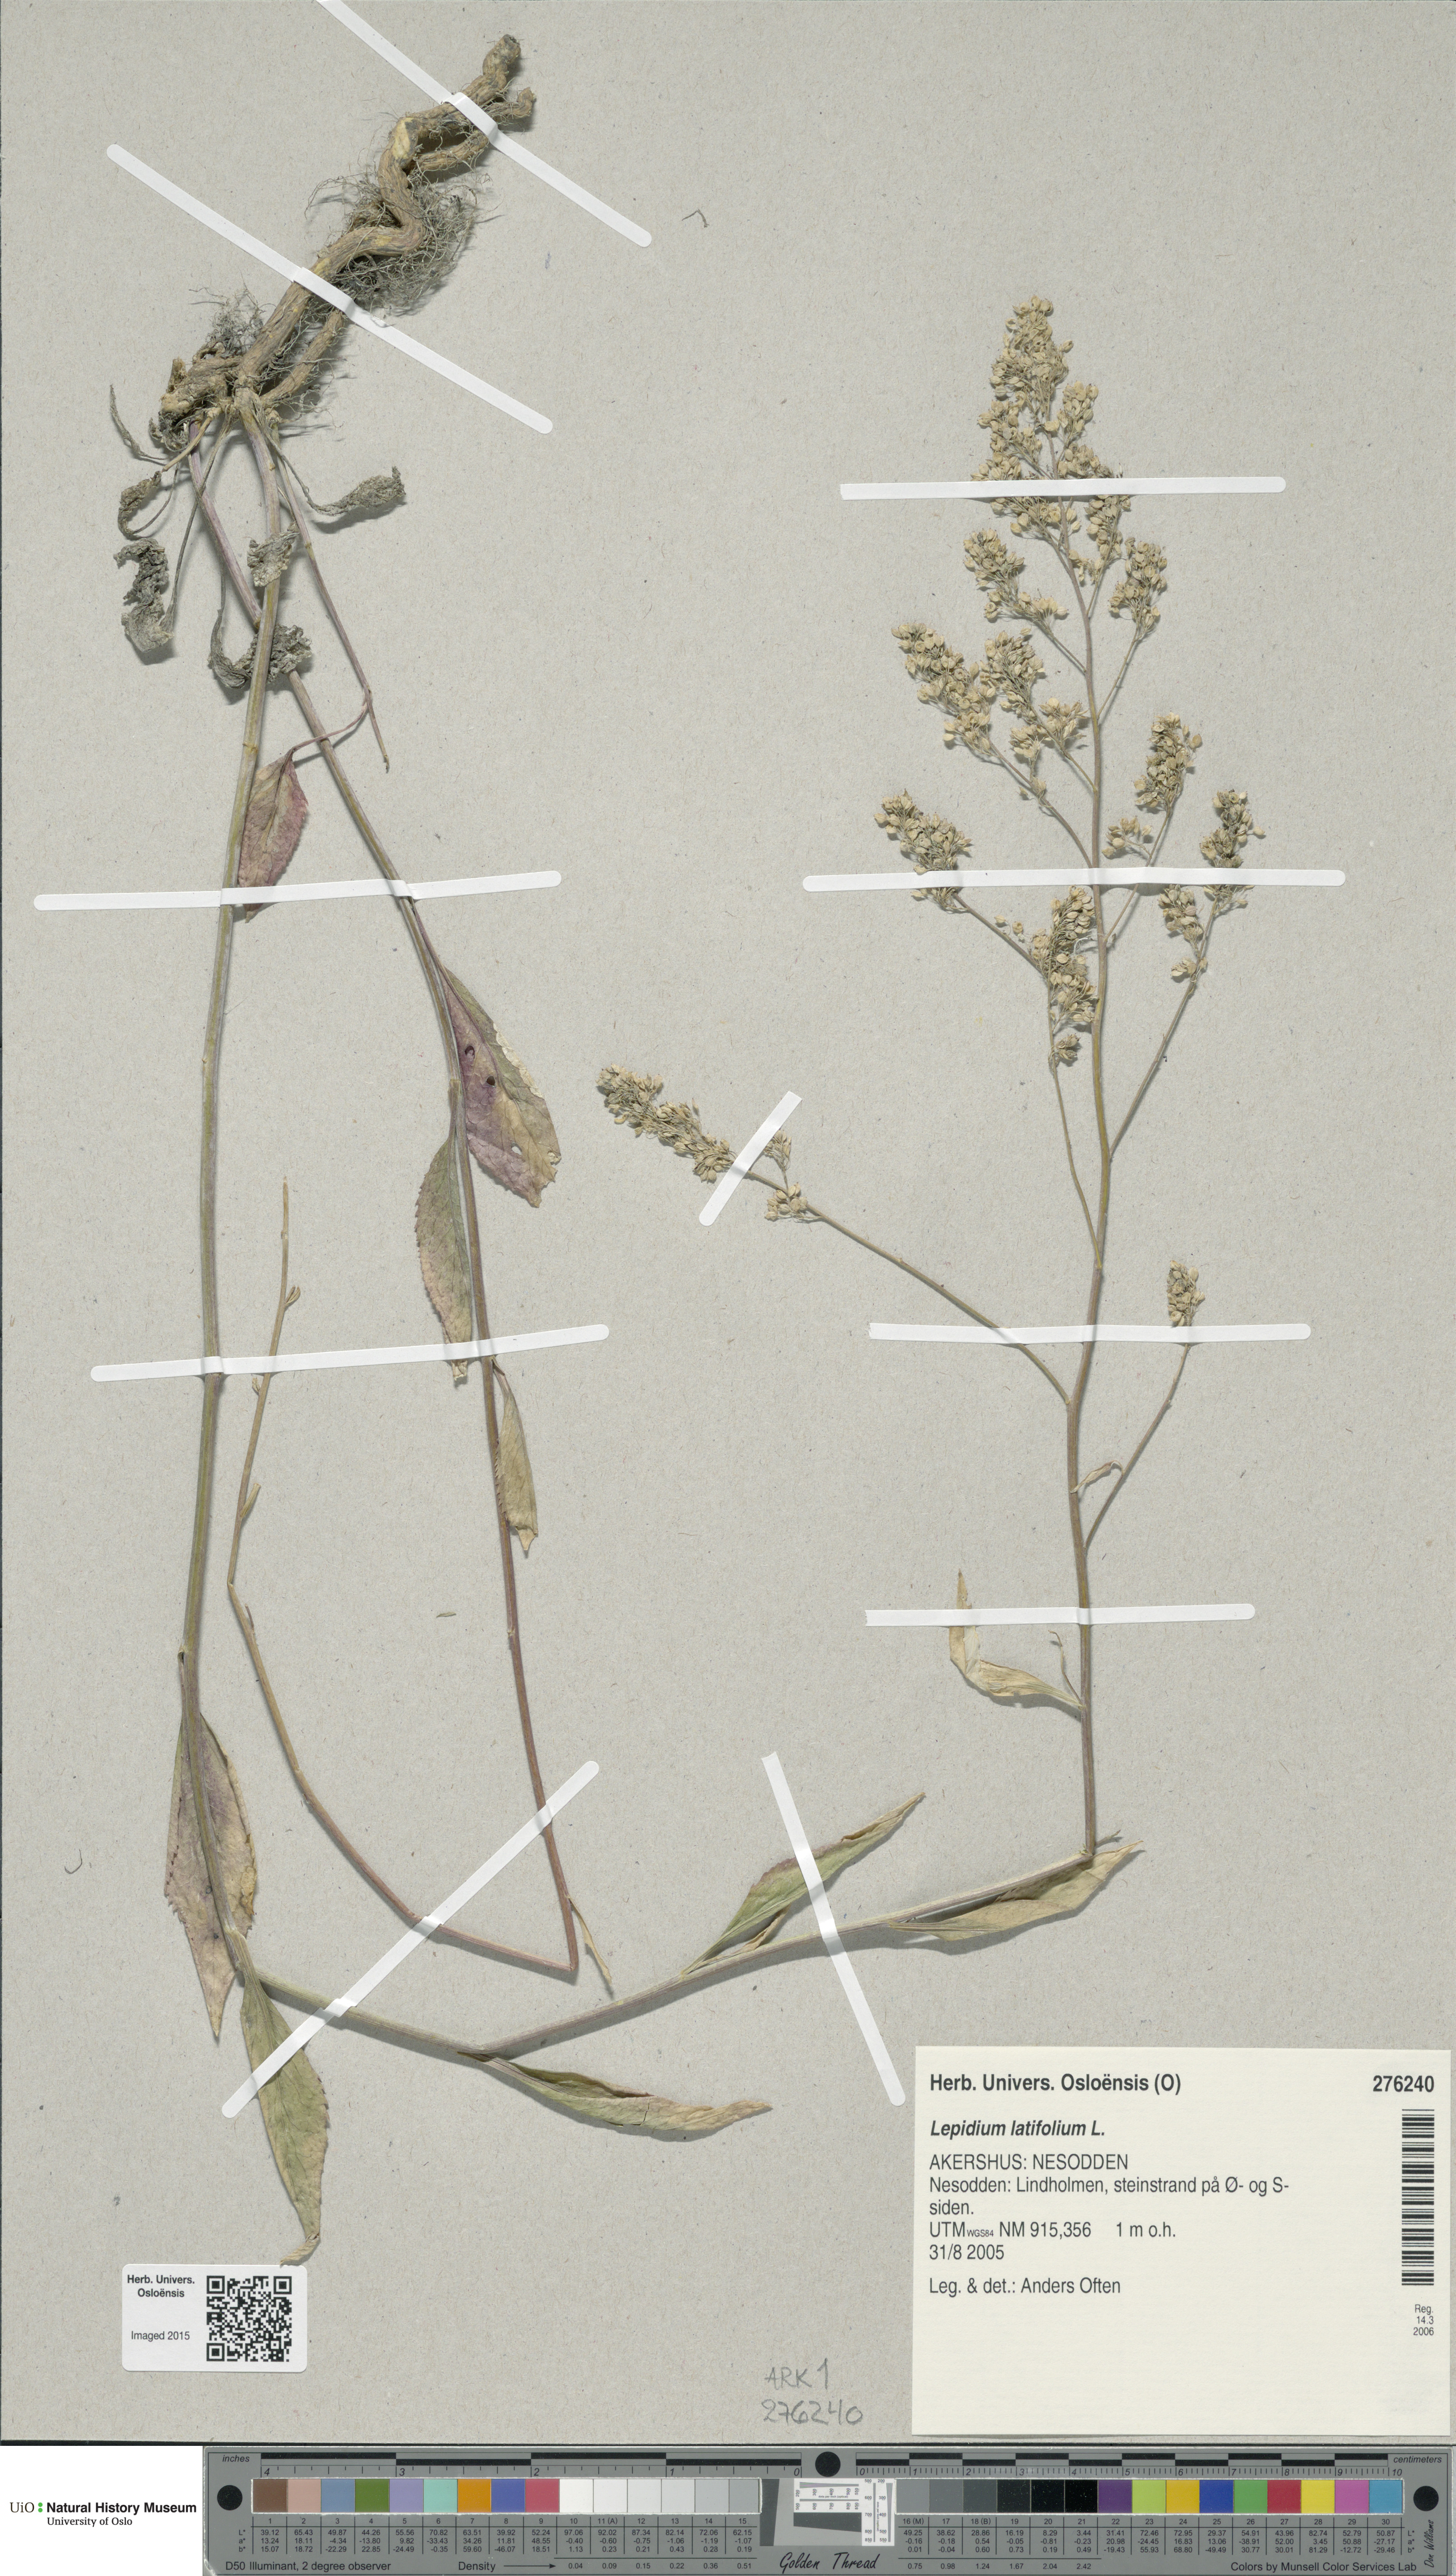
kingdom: Plantae
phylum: Tracheophyta
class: Magnoliopsida
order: Brassicales
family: Brassicaceae
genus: Lepidium
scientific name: Lepidium latifolium
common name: Dittander
